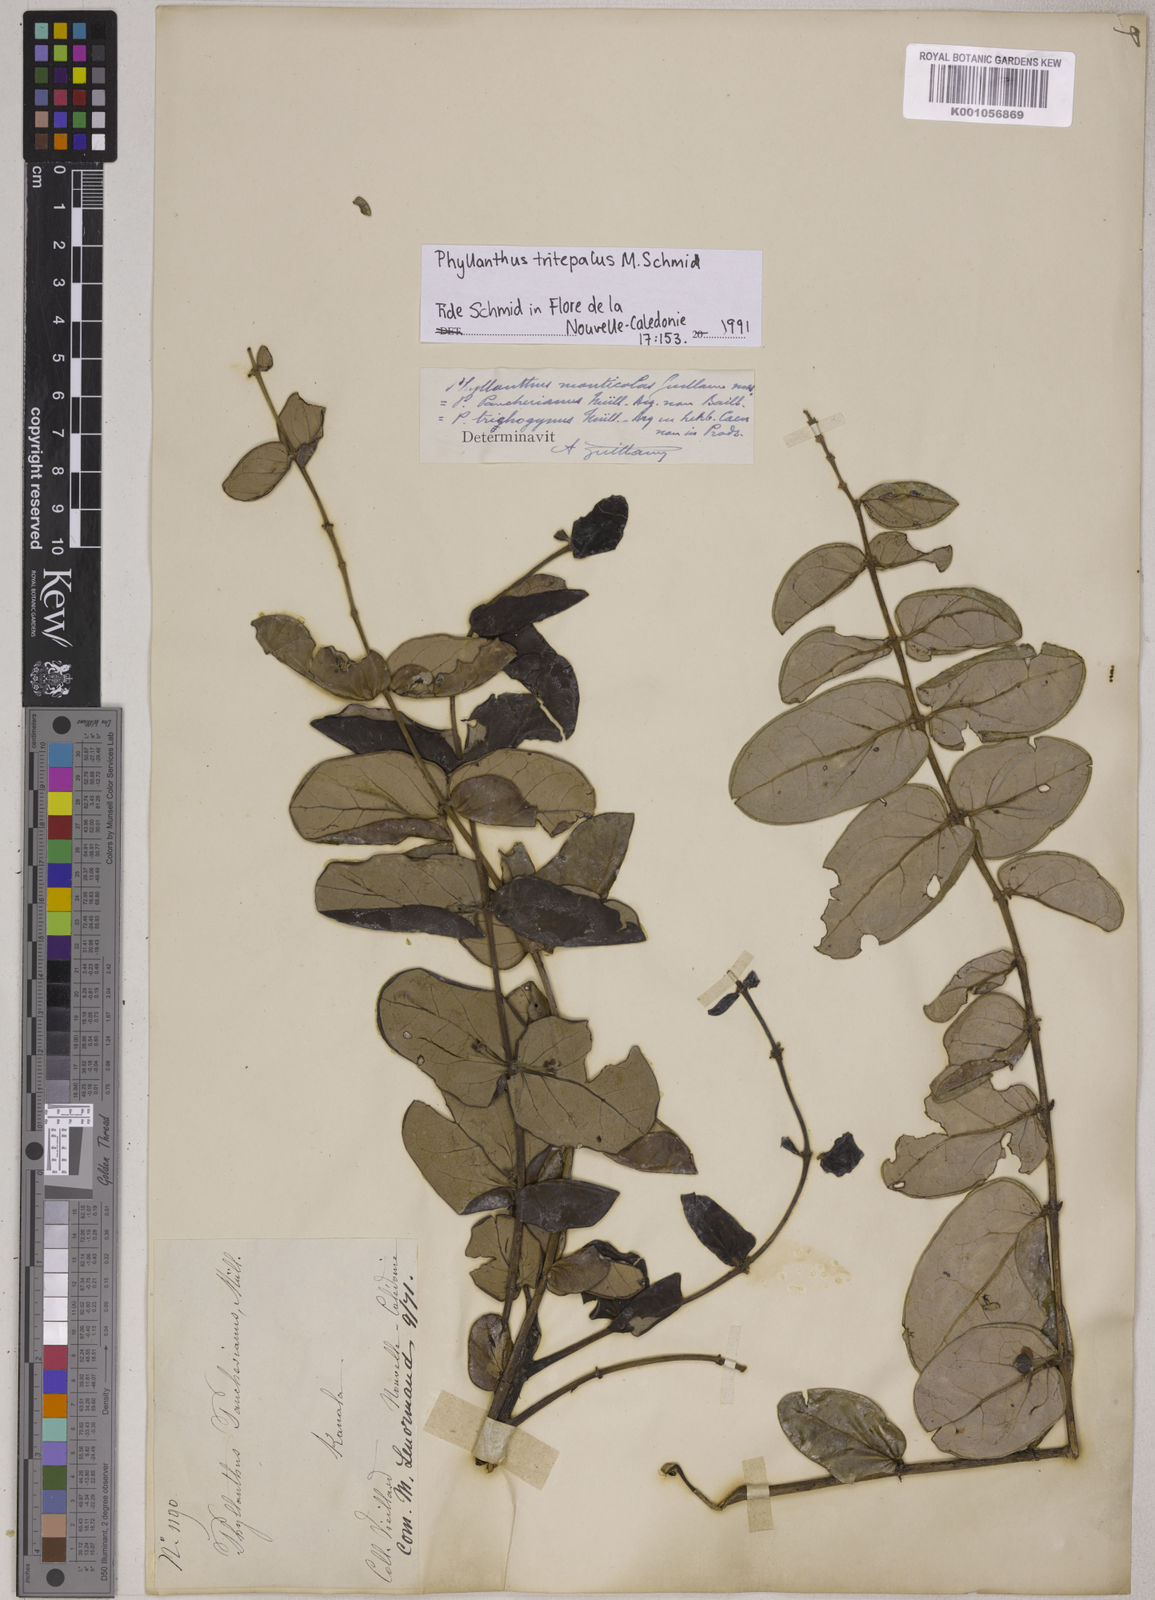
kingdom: Plantae
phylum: Tracheophyta
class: Magnoliopsida
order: Malpighiales
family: Phyllanthaceae
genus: Phyllanthus
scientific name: Phyllanthus tritepalus
